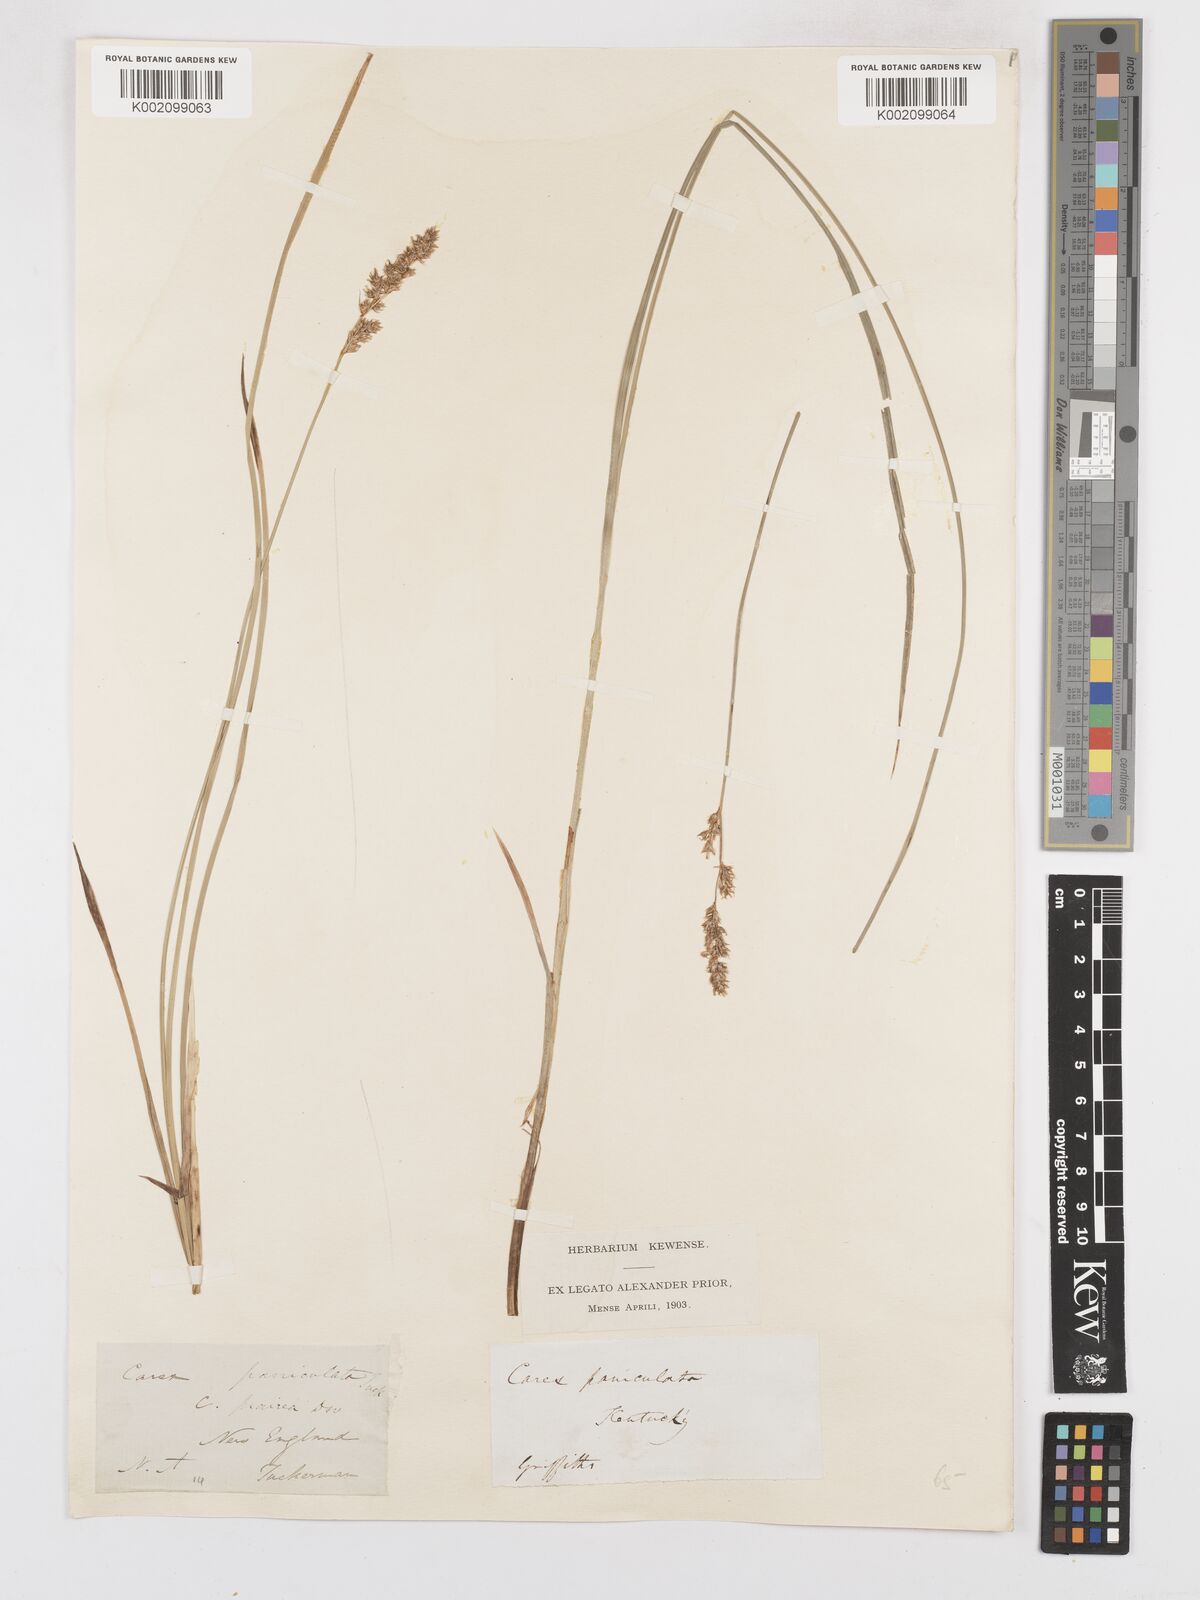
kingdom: Plantae
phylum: Tracheophyta
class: Liliopsida
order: Poales
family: Cyperaceae
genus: Carex
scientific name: Carex diandra
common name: Lesser tussock-sedge
